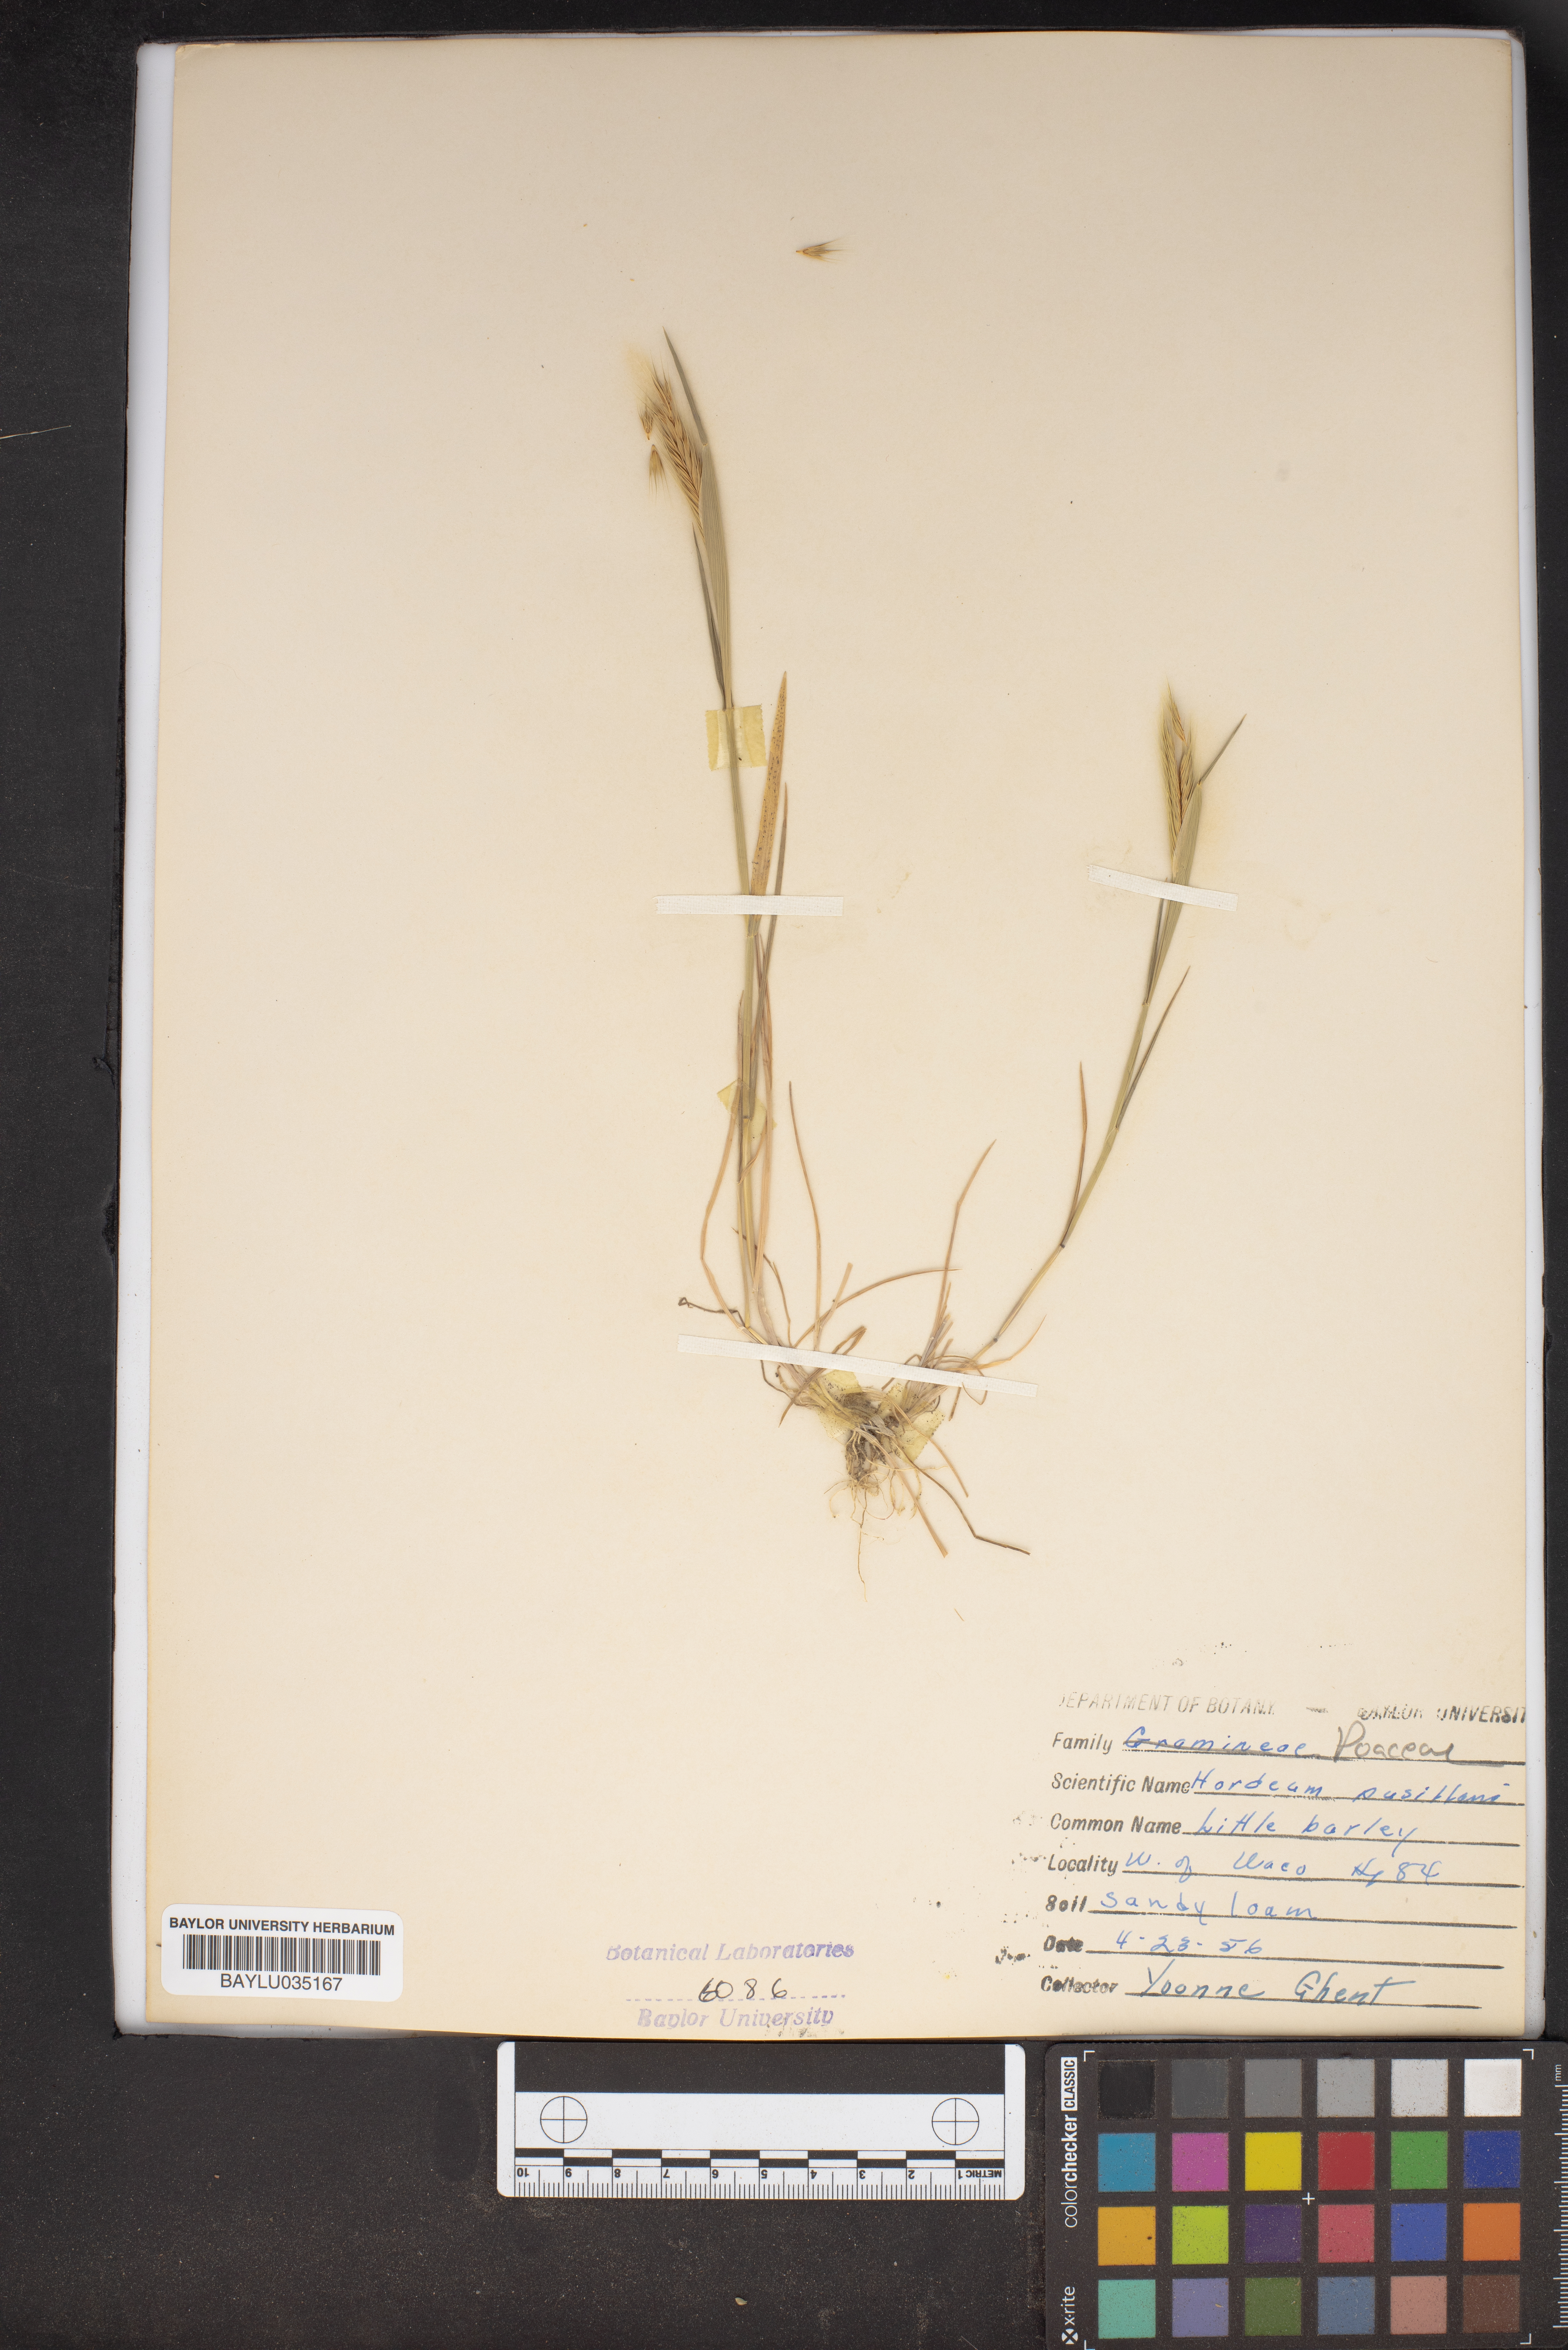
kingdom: Plantae
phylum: Tracheophyta
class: Liliopsida
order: Poales
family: Poaceae
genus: Hordeum
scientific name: Hordeum pusillum
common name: Little barley
